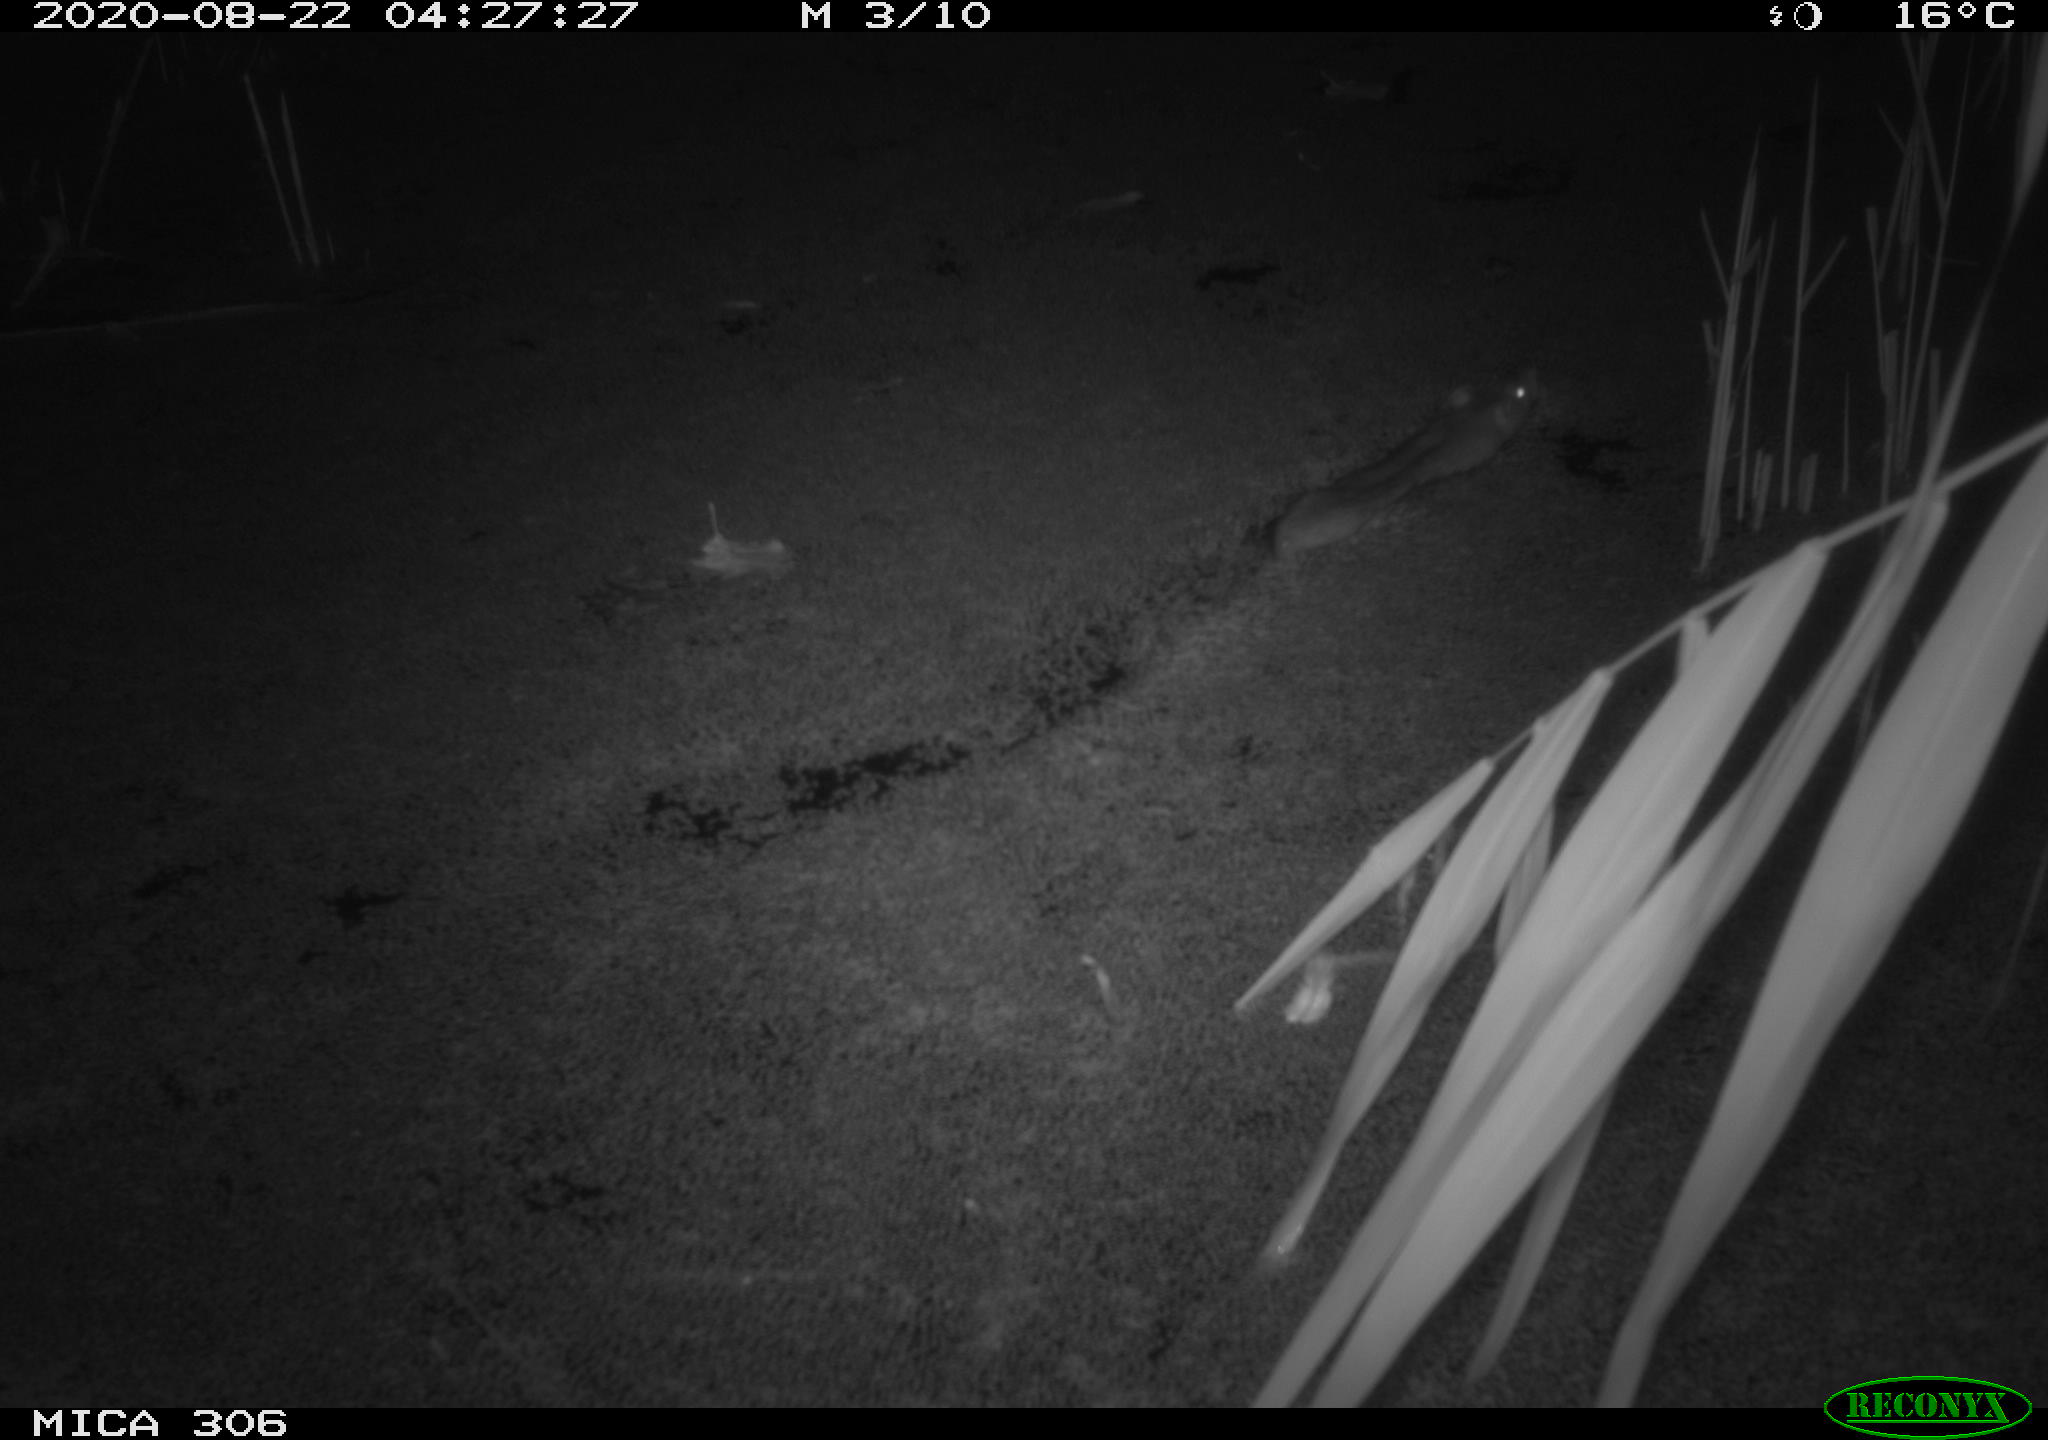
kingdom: Animalia
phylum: Chordata
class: Mammalia
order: Rodentia
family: Muridae
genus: Rattus
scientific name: Rattus norvegicus
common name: Brown rat
